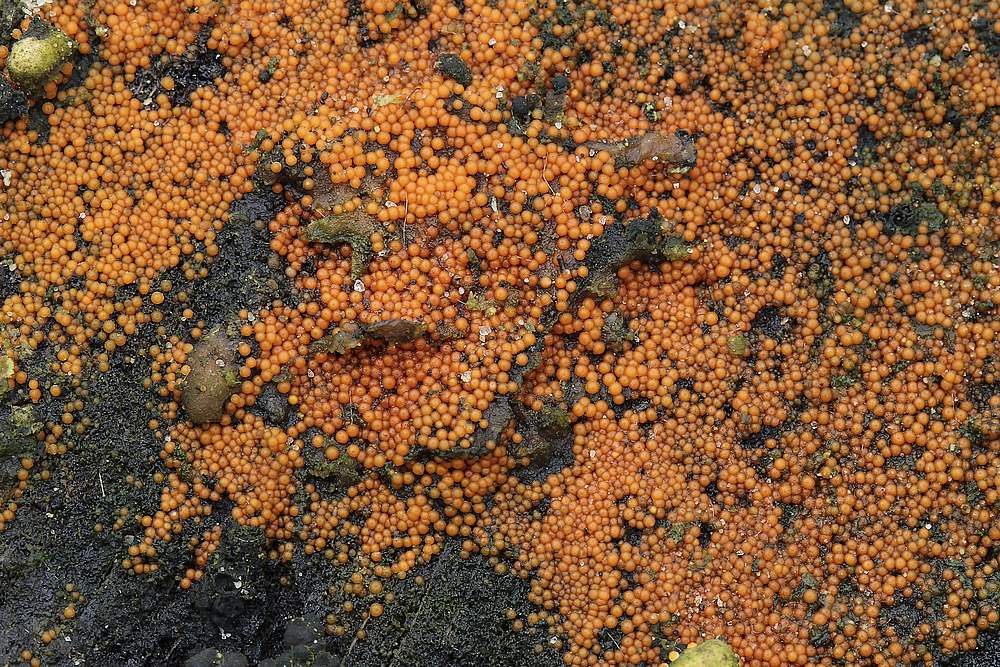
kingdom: Fungi
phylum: Ascomycota
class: Sordariomycetes
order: Hypocreales
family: Nectriaceae
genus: Hydropisphaera
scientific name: Hydropisphaera peziza
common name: skålformet gyldenkerne
